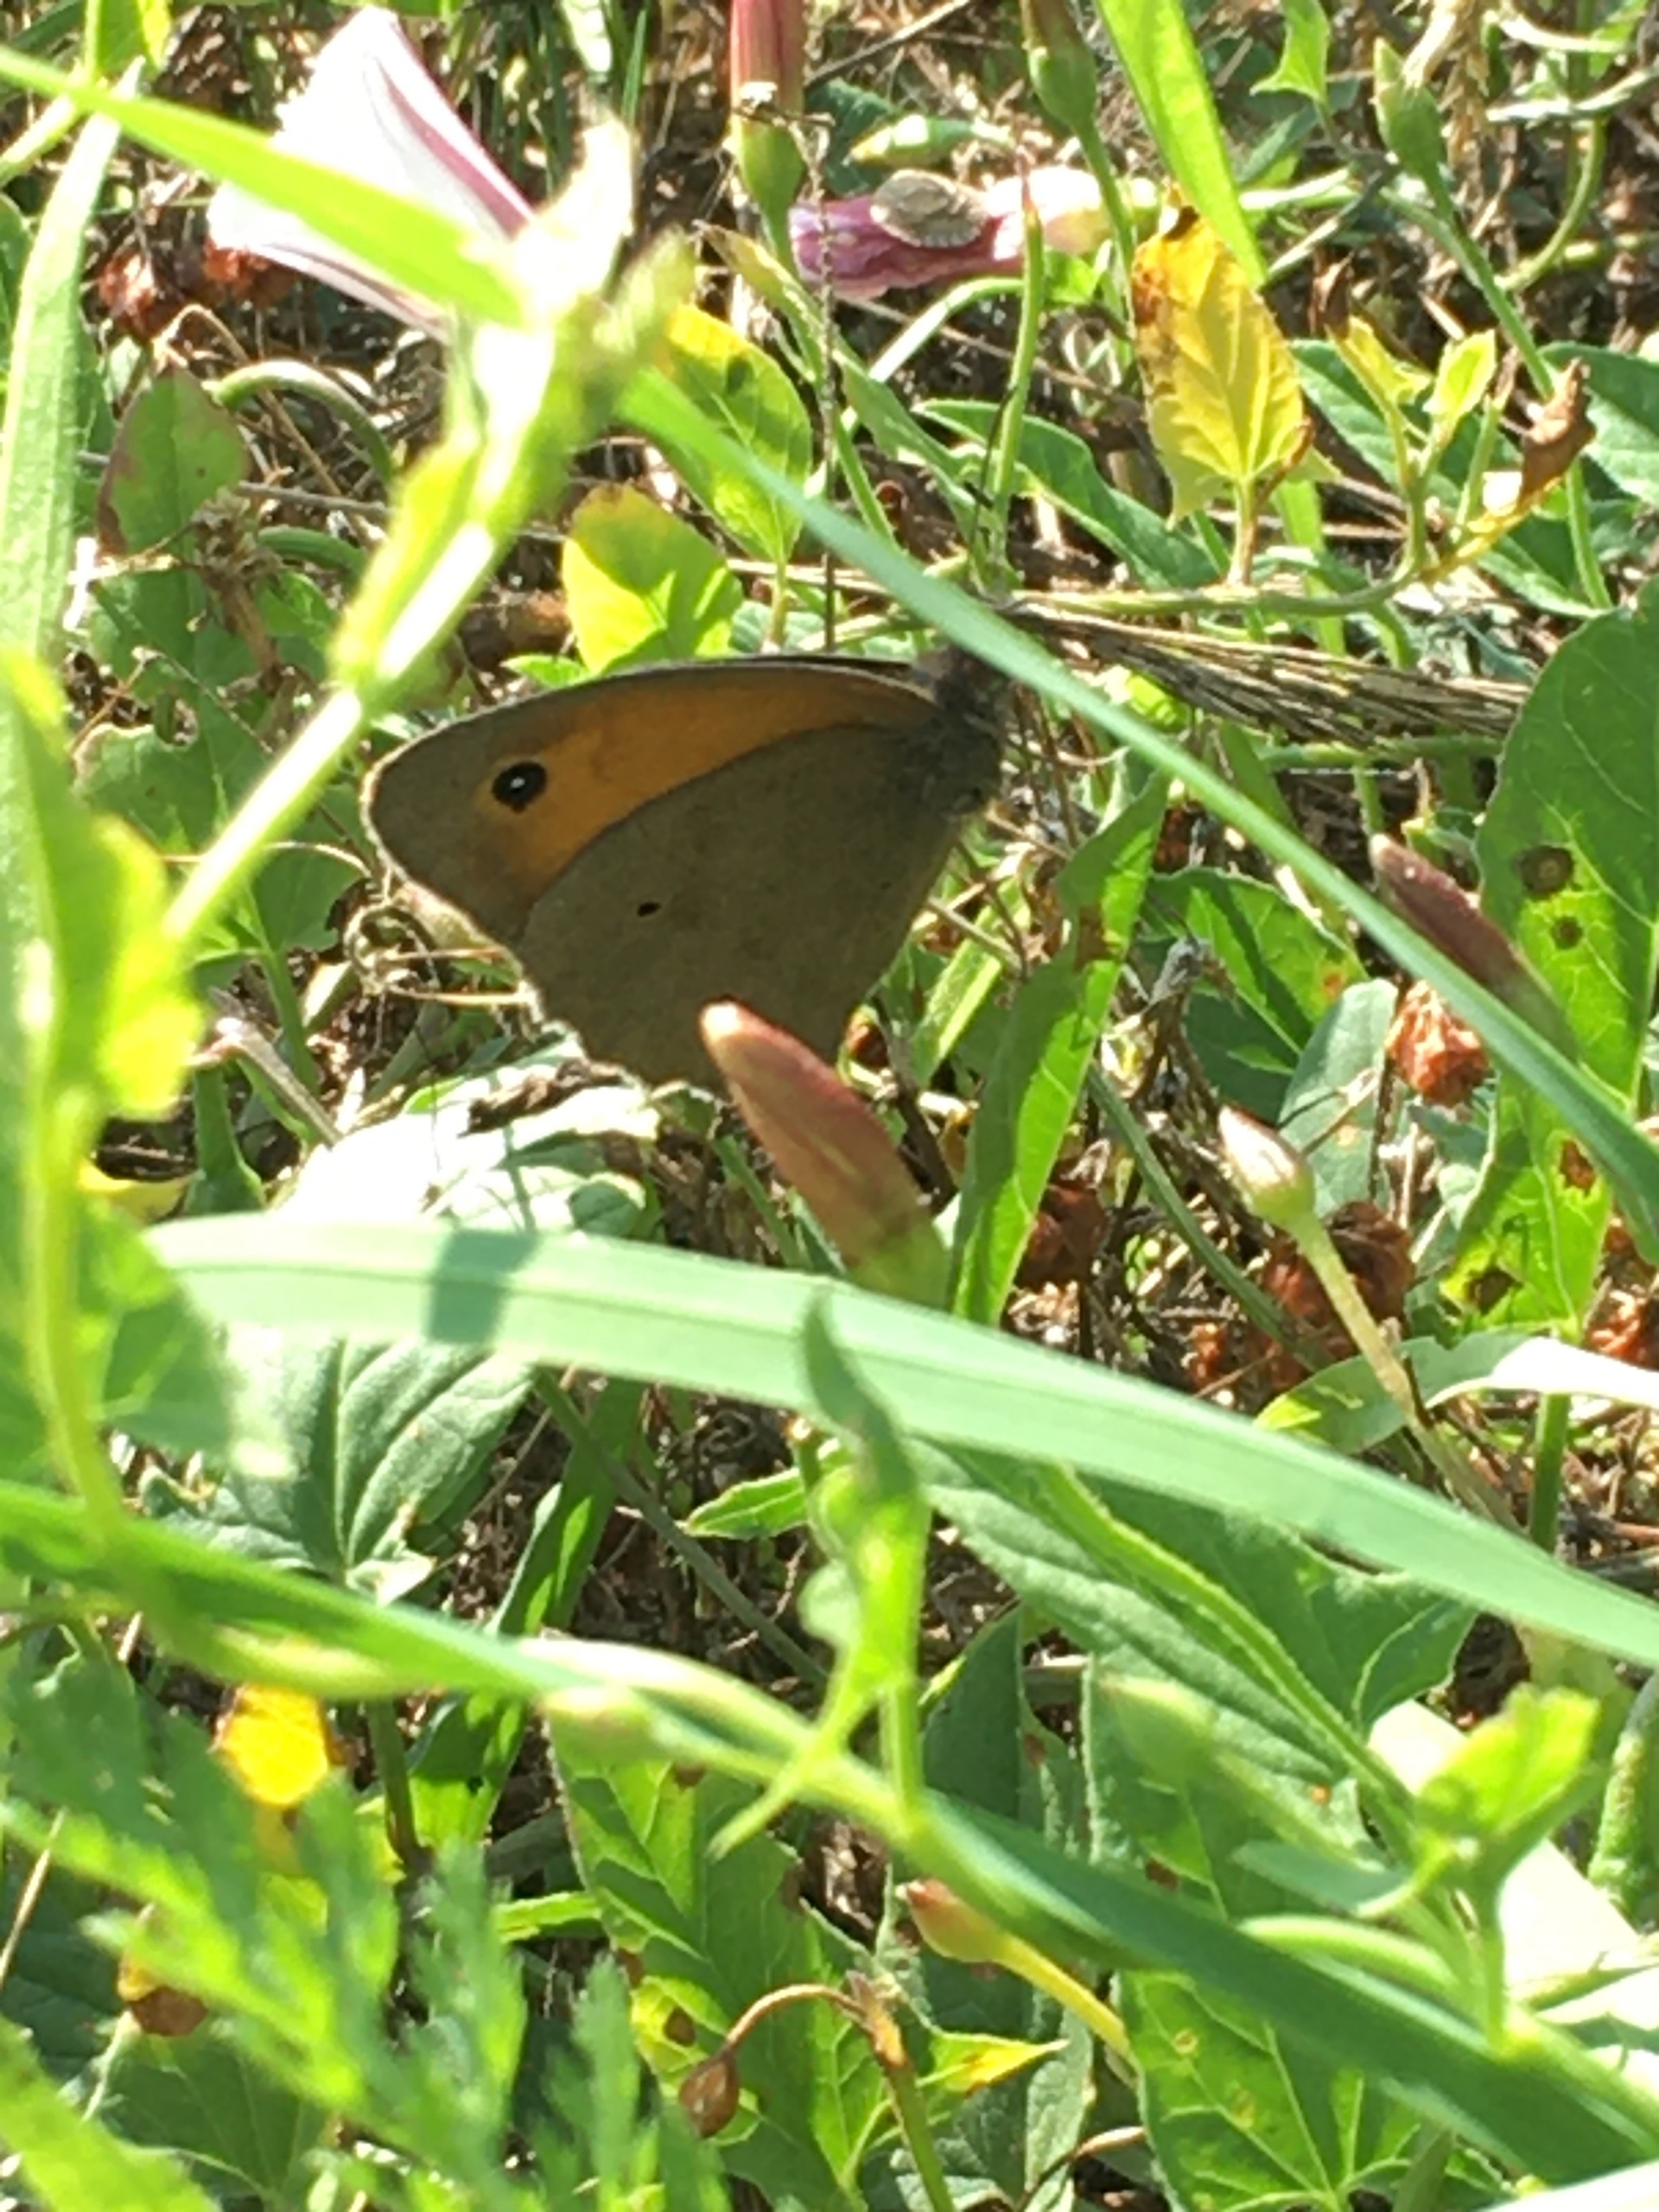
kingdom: Animalia
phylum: Arthropoda
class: Insecta
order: Lepidoptera
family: Nymphalidae
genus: Maniola
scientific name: Maniola jurtina
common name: Græsrandøje
